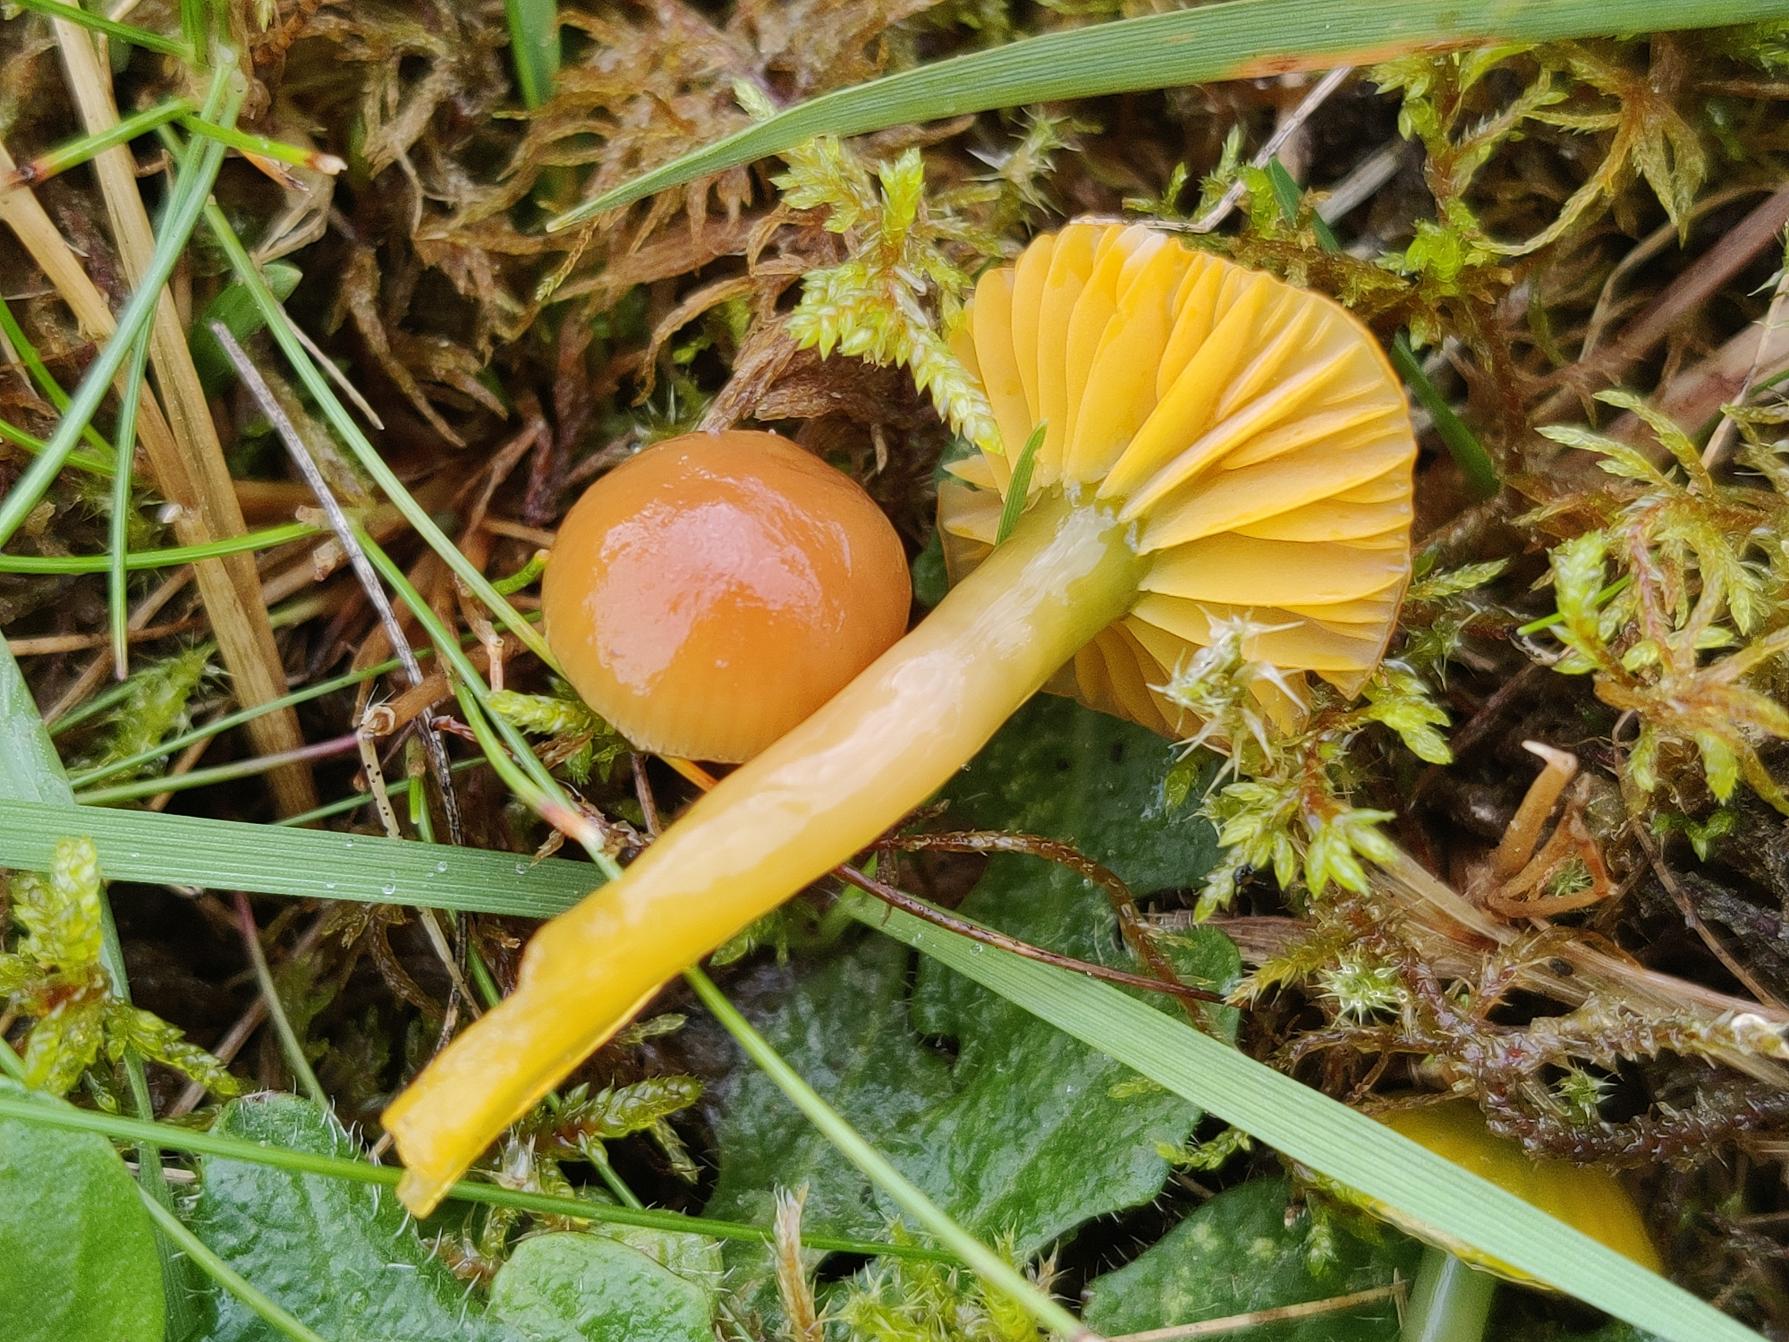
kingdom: Fungi
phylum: Basidiomycota
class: Agaricomycetes
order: Agaricales
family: Hygrophoraceae
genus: Gliophorus
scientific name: Gliophorus psittacinus
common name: Papegøje-vokshat
